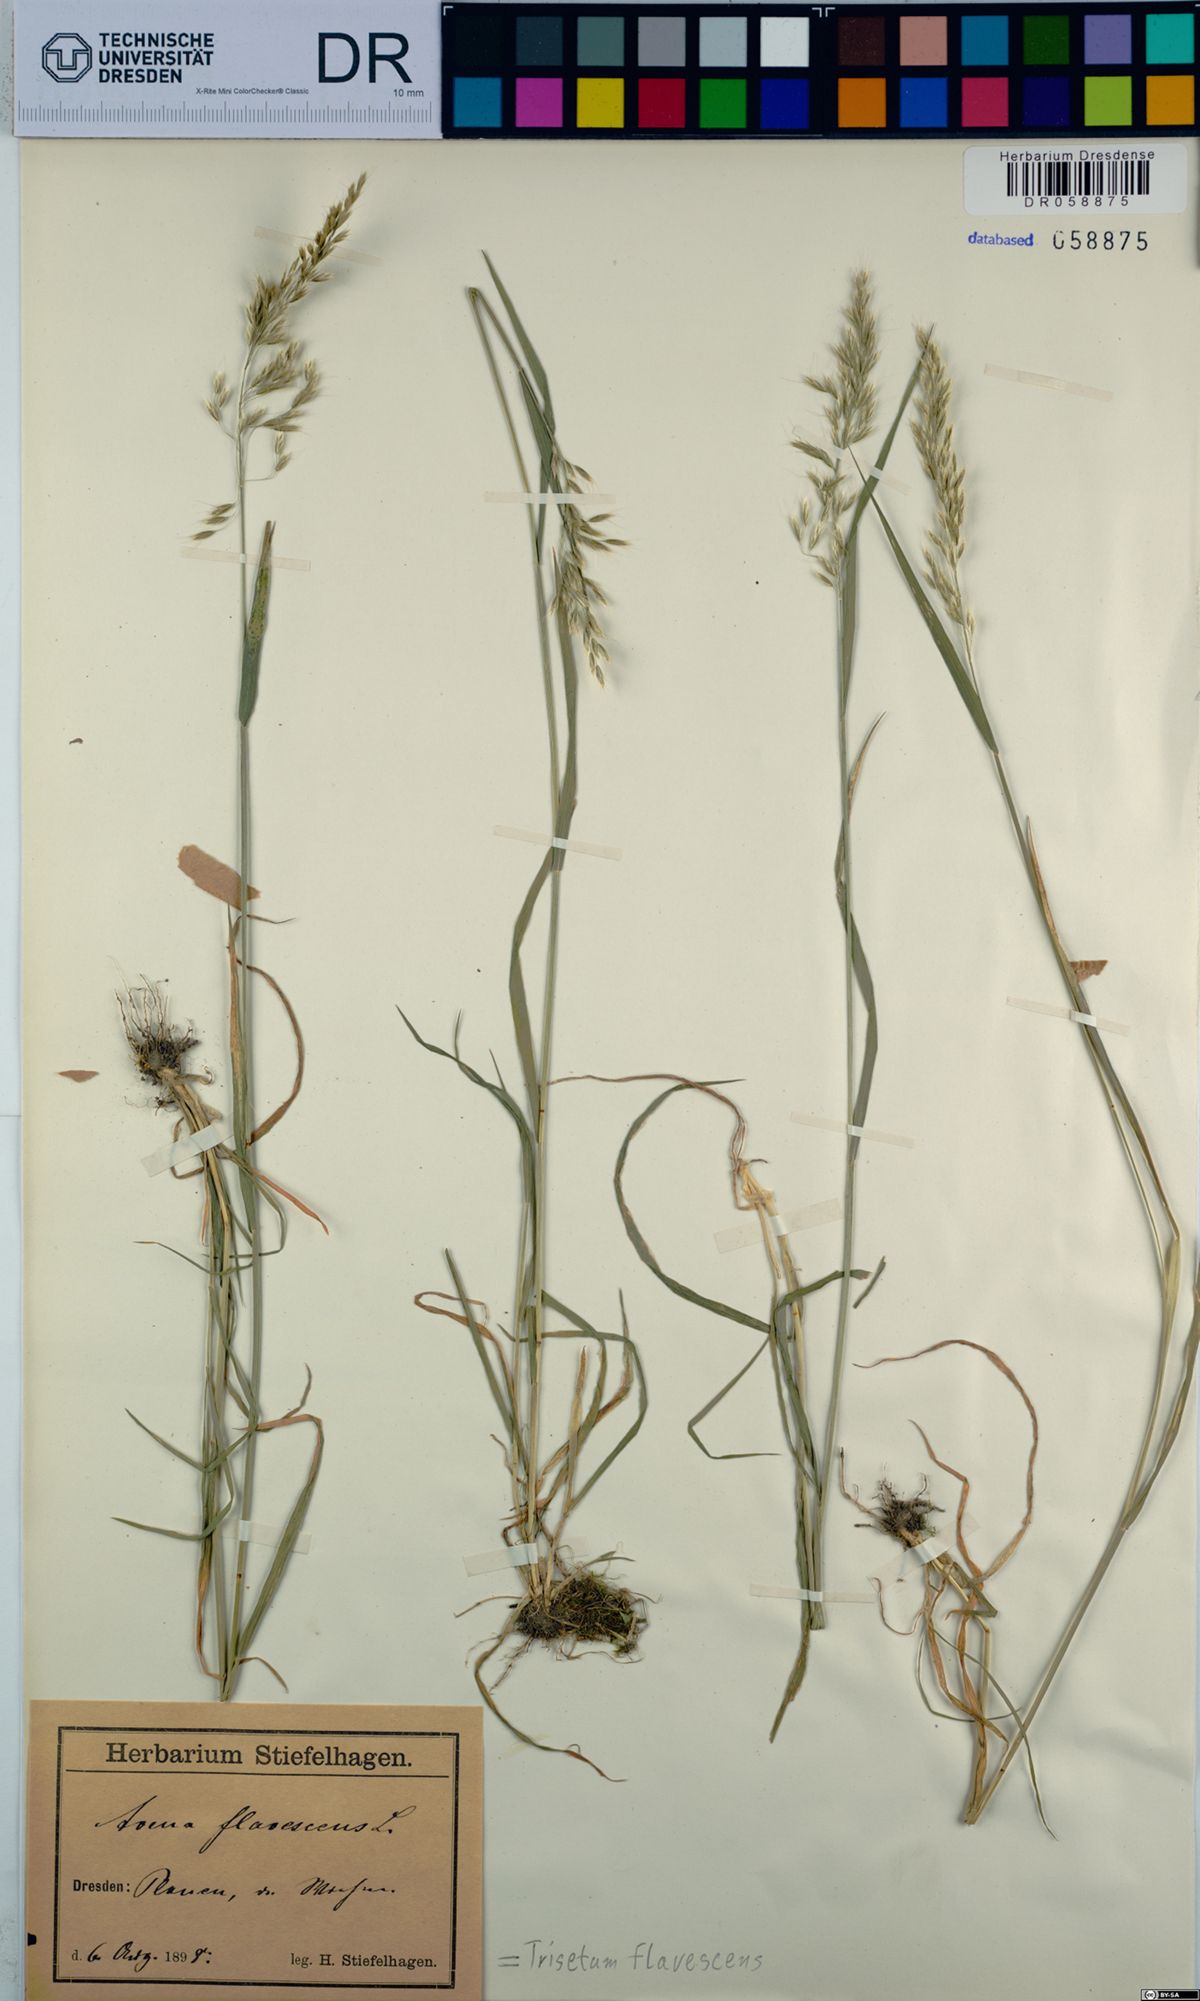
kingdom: Plantae
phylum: Tracheophyta
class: Liliopsida
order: Poales
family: Poaceae
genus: Trisetum
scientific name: Trisetum flavescens
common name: Yellow oat-grass
